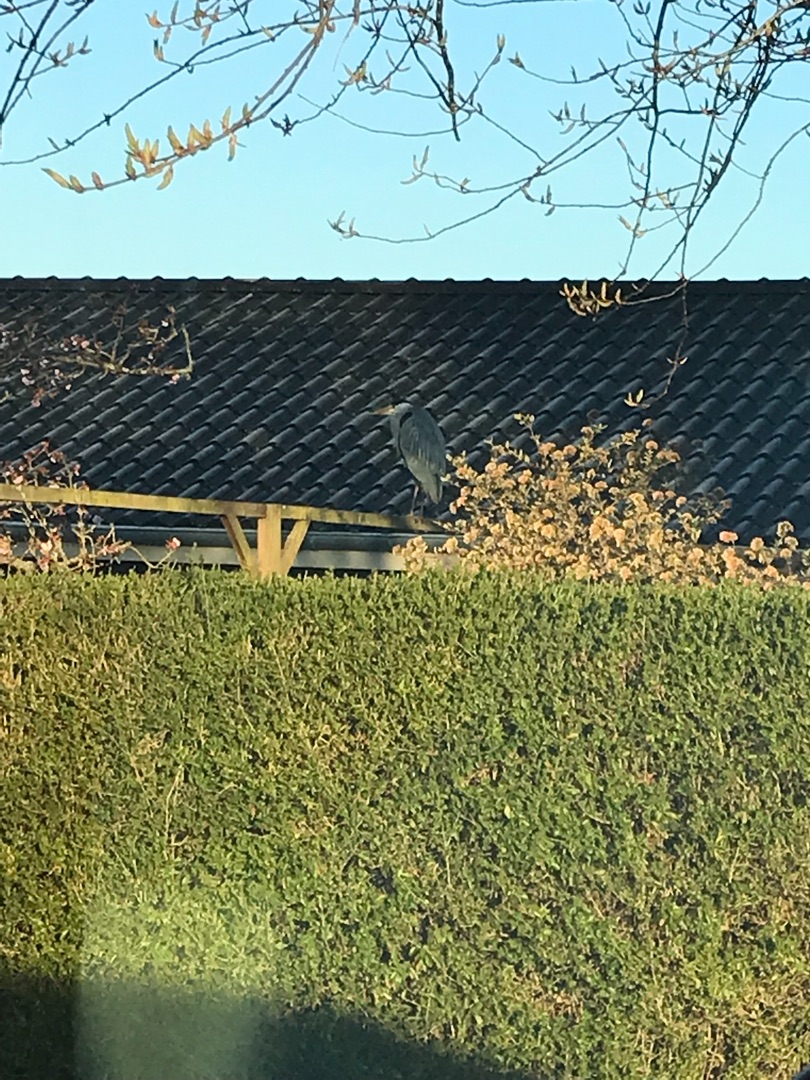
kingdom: Animalia
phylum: Chordata
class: Aves
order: Pelecaniformes
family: Ardeidae
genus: Ardea
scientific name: Ardea cinerea
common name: Fiskehejre
